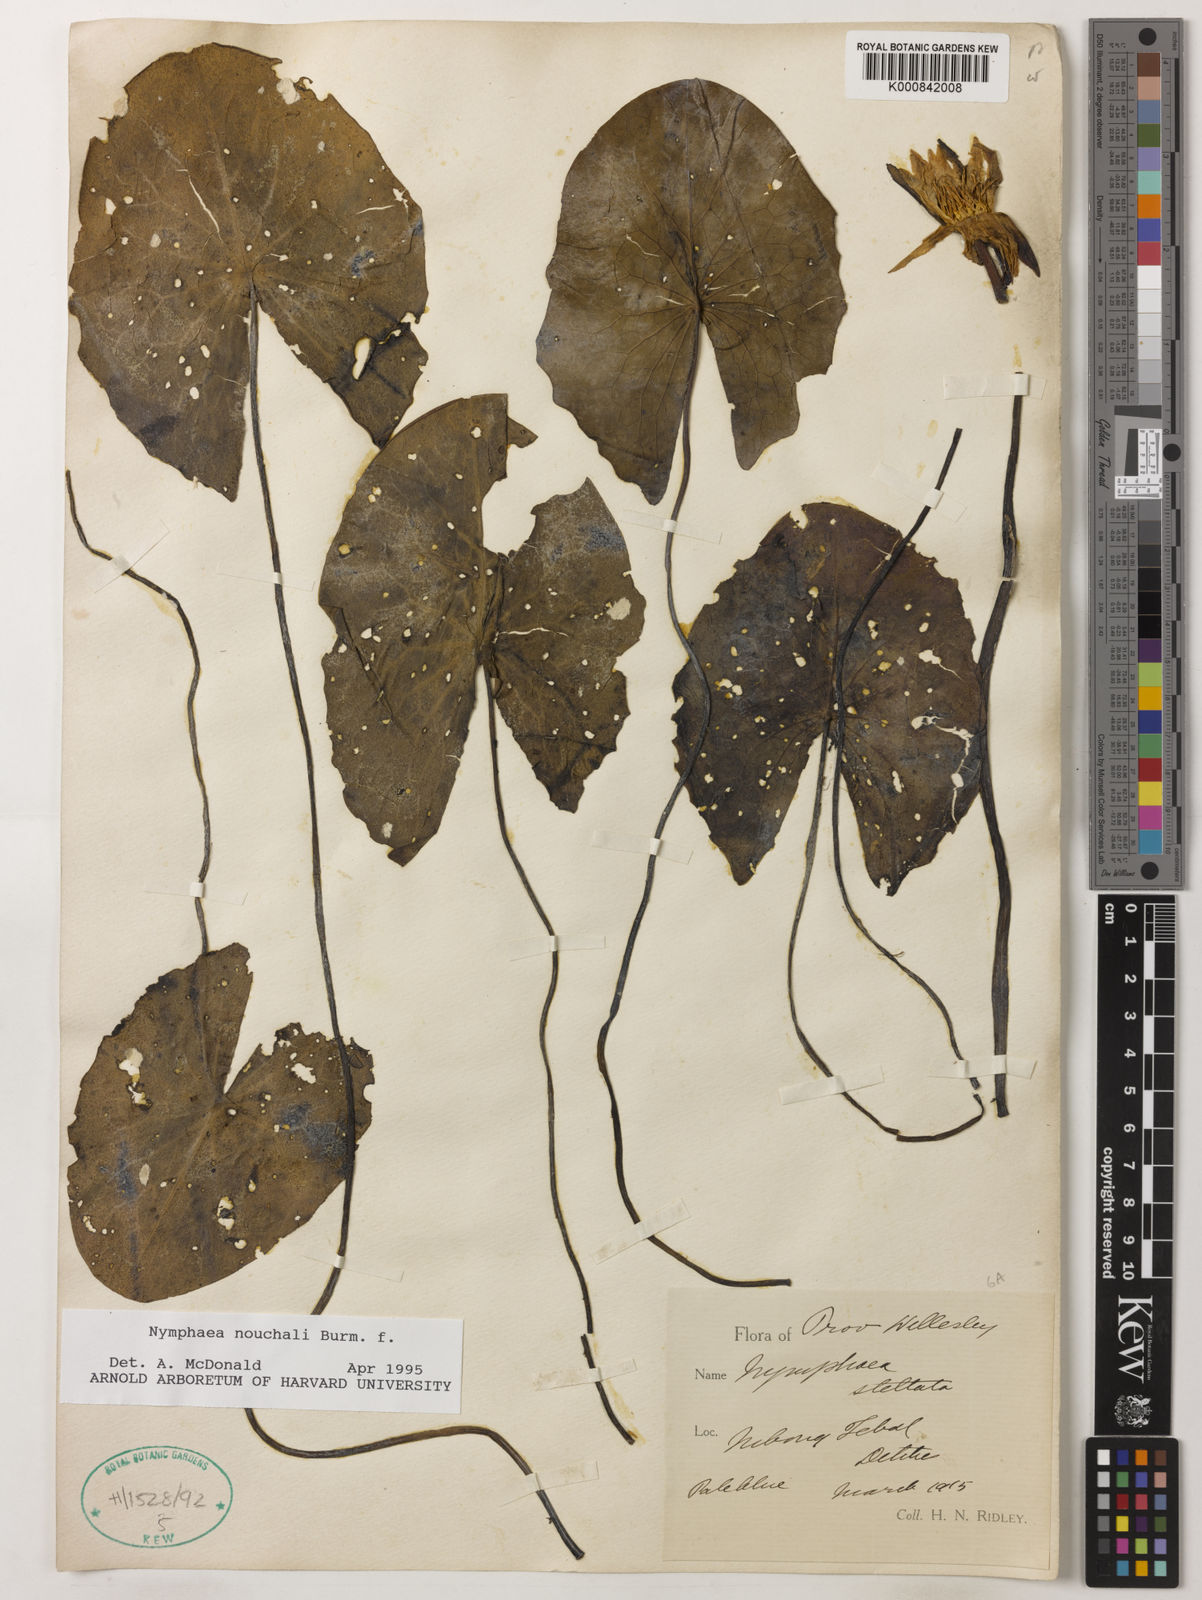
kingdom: Plantae
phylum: Tracheophyta
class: Magnoliopsida
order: Nymphaeales
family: Nymphaeaceae
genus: Nymphaea
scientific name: Nymphaea nouchali
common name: Blue lotus
